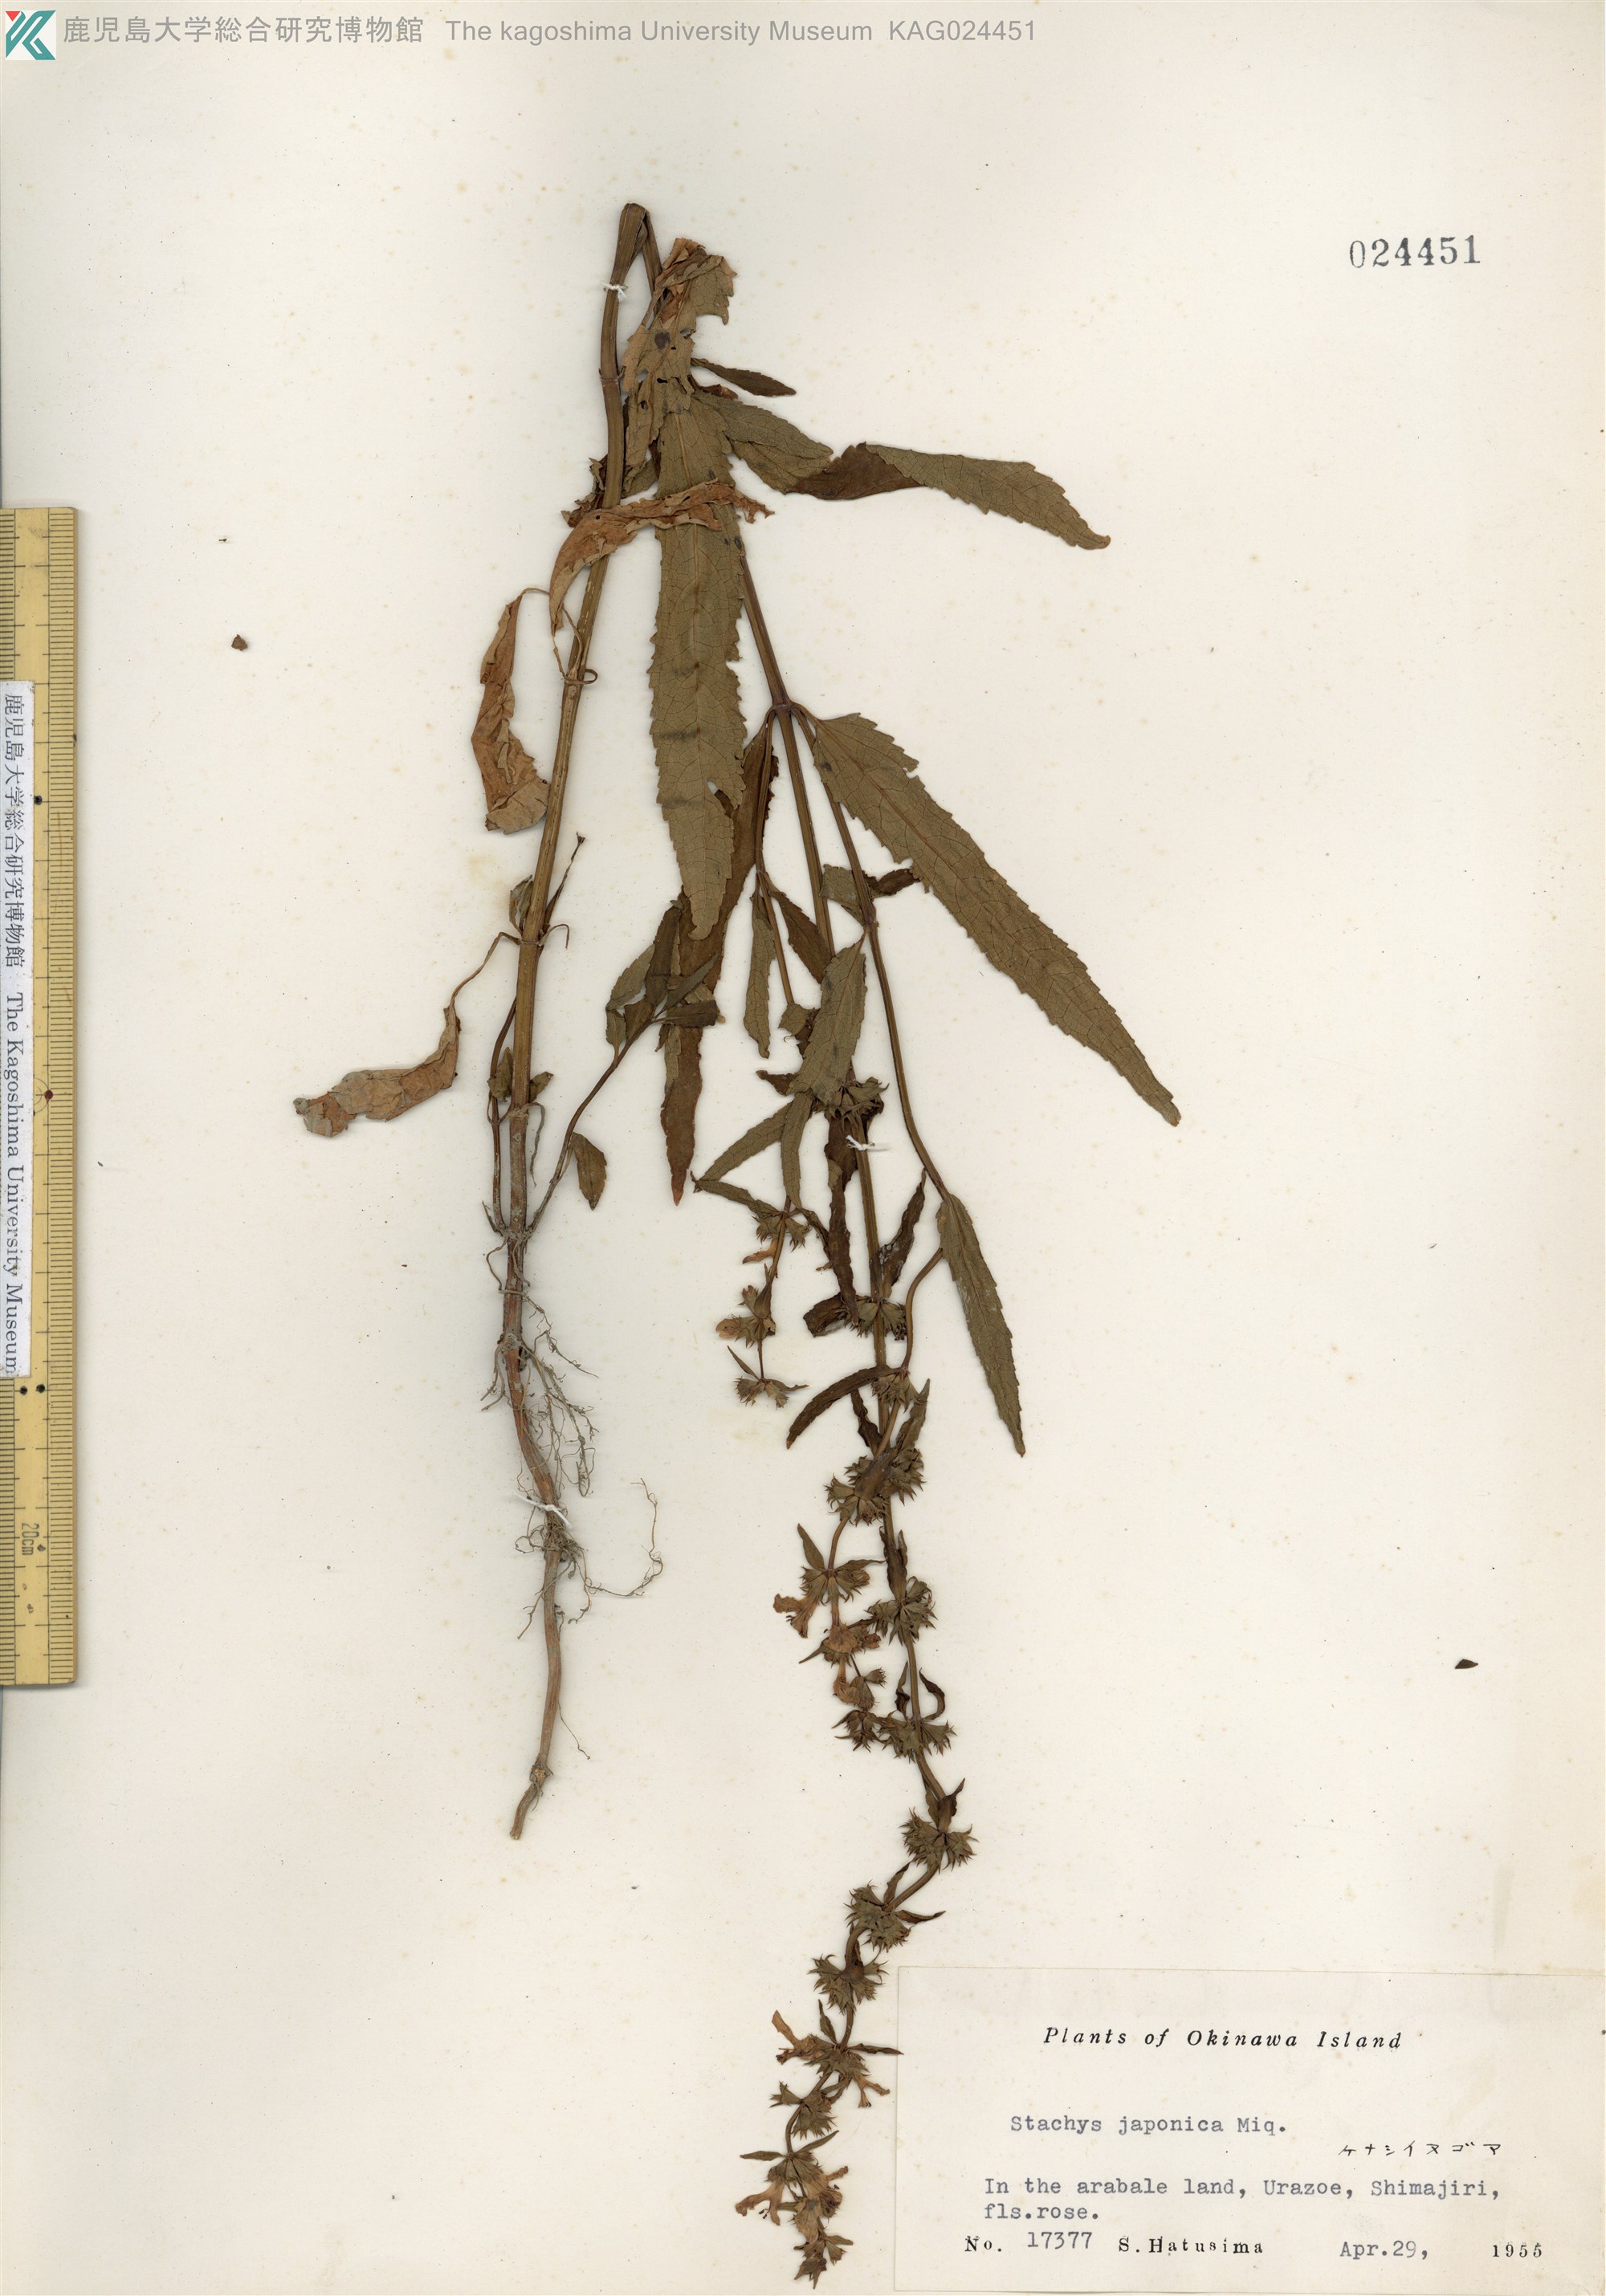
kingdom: Plantae
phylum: Tracheophyta
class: Magnoliopsida
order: Lamiales
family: Lamiaceae
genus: Stachys
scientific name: Stachys aspera
